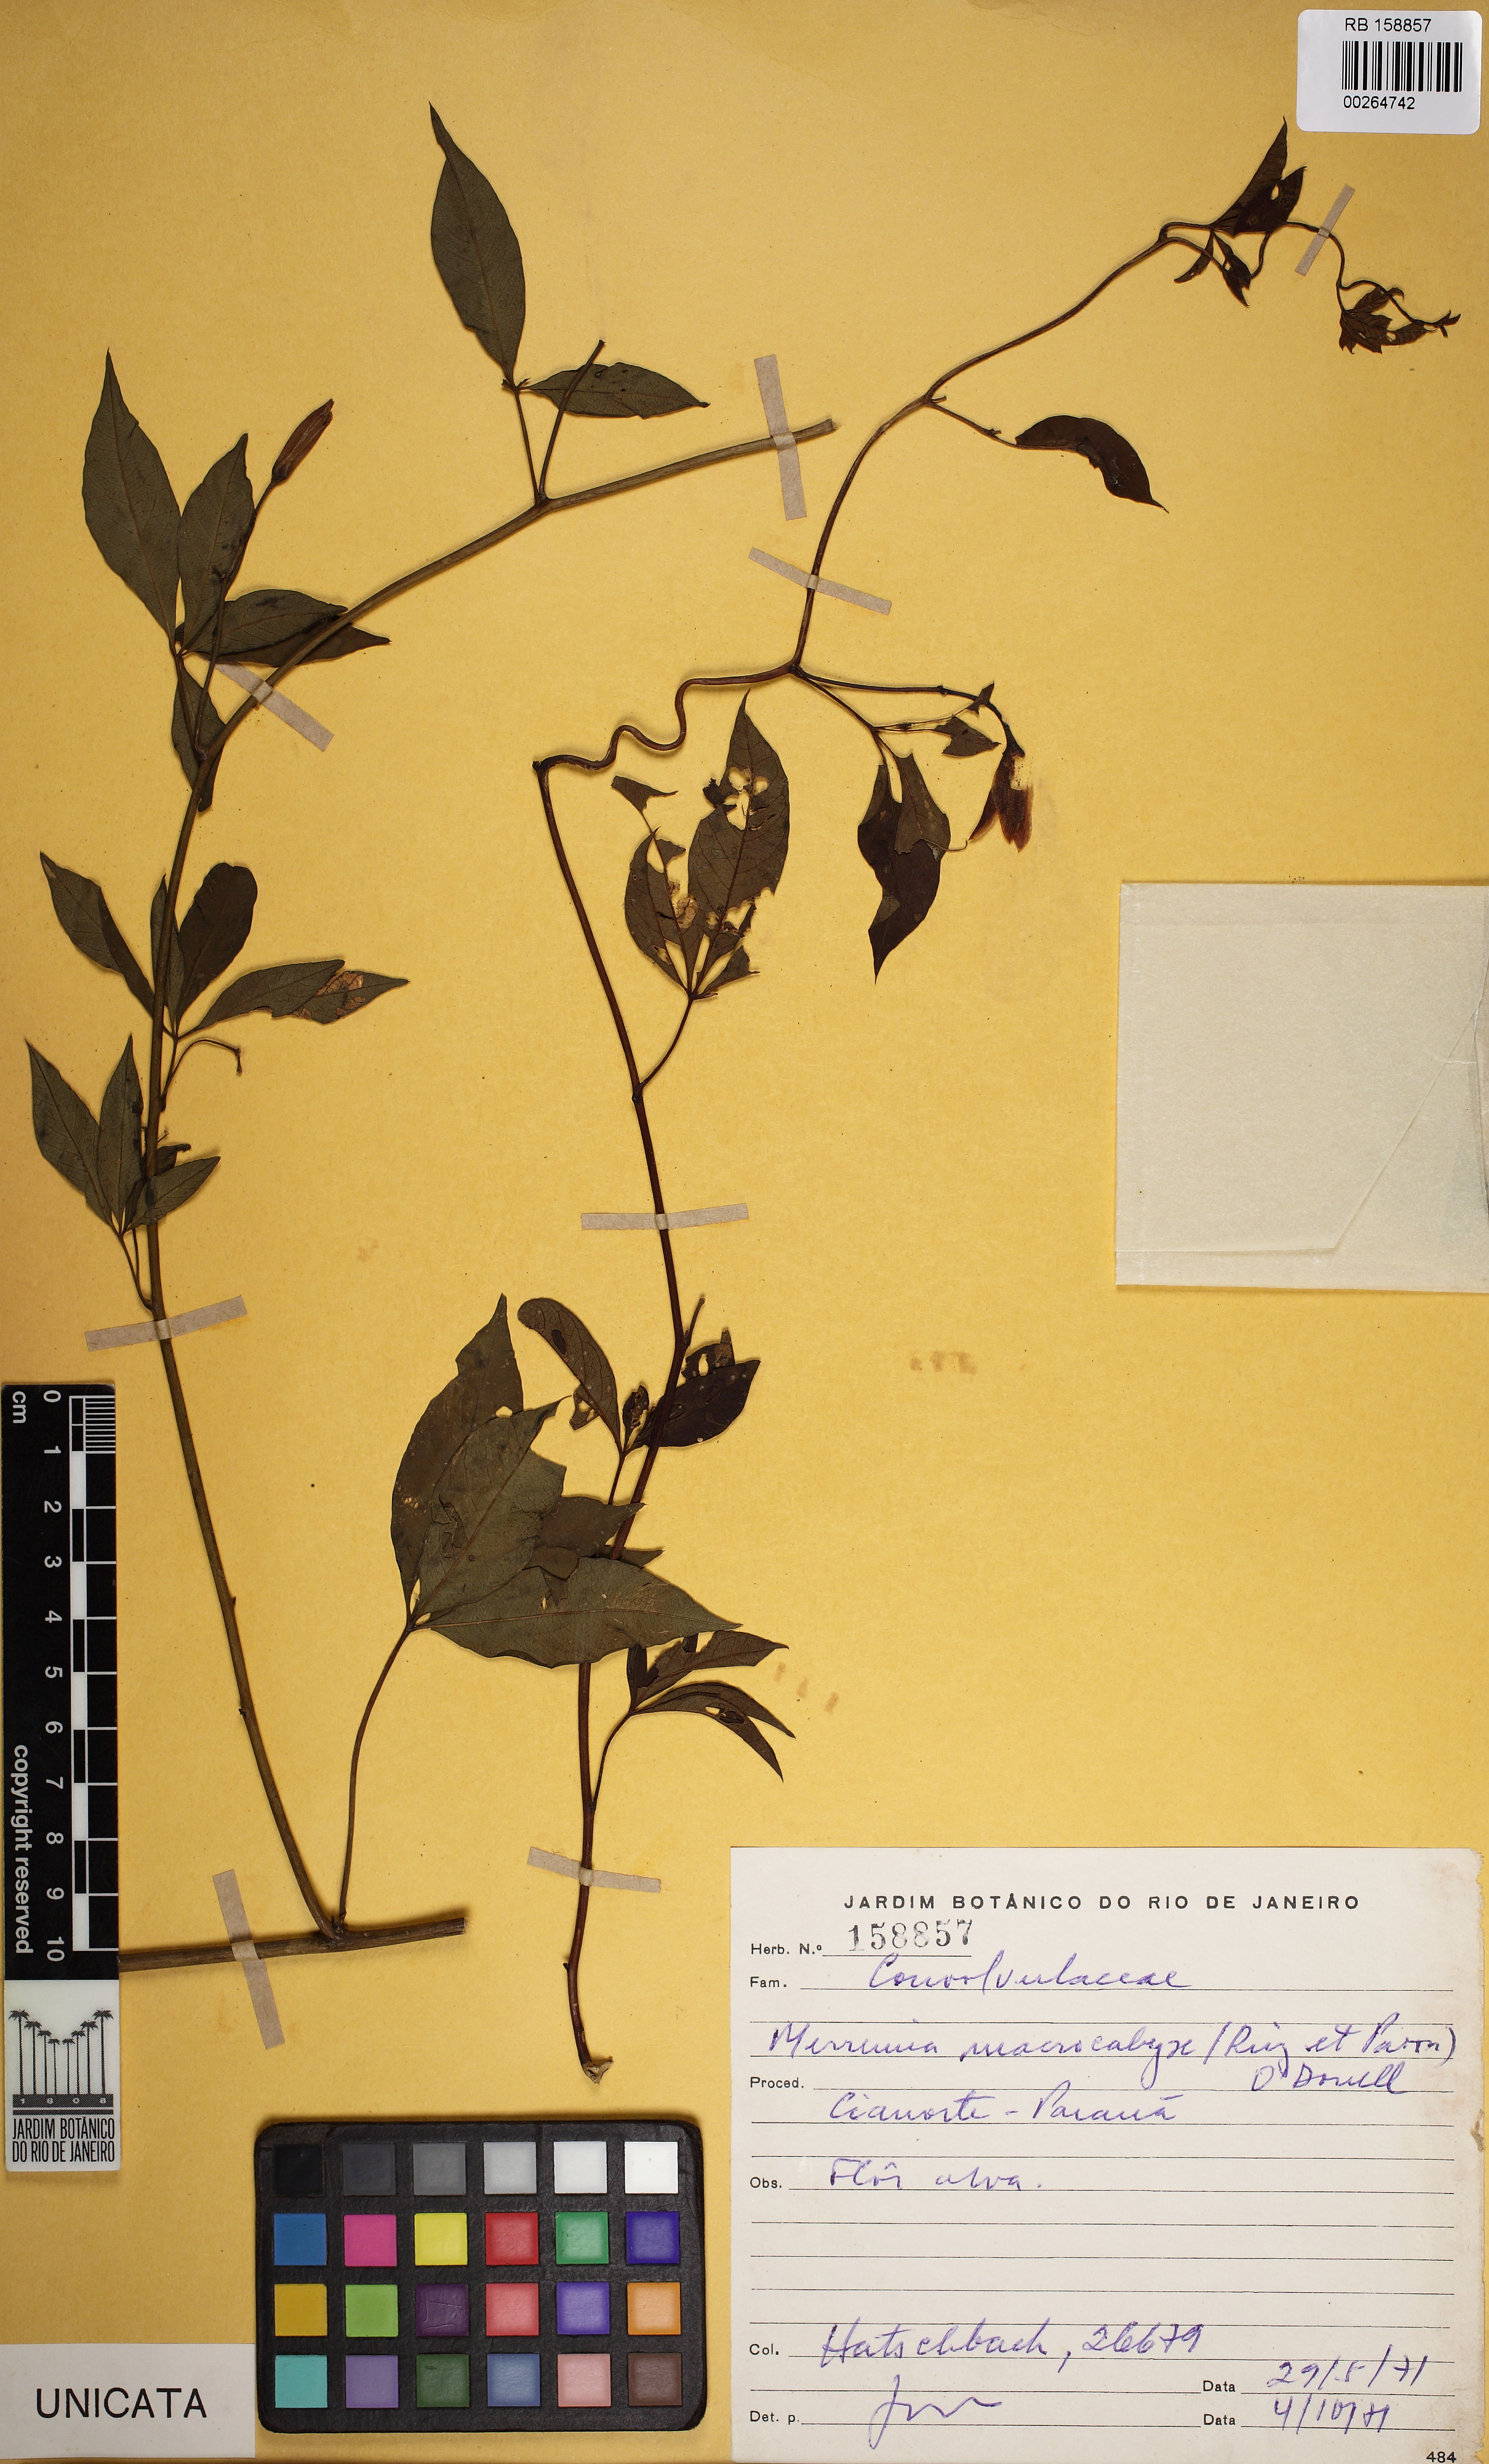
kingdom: Plantae
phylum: Tracheophyta
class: Magnoliopsida
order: Solanales
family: Convolvulaceae
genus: Distimake
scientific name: Distimake macrocalyx
